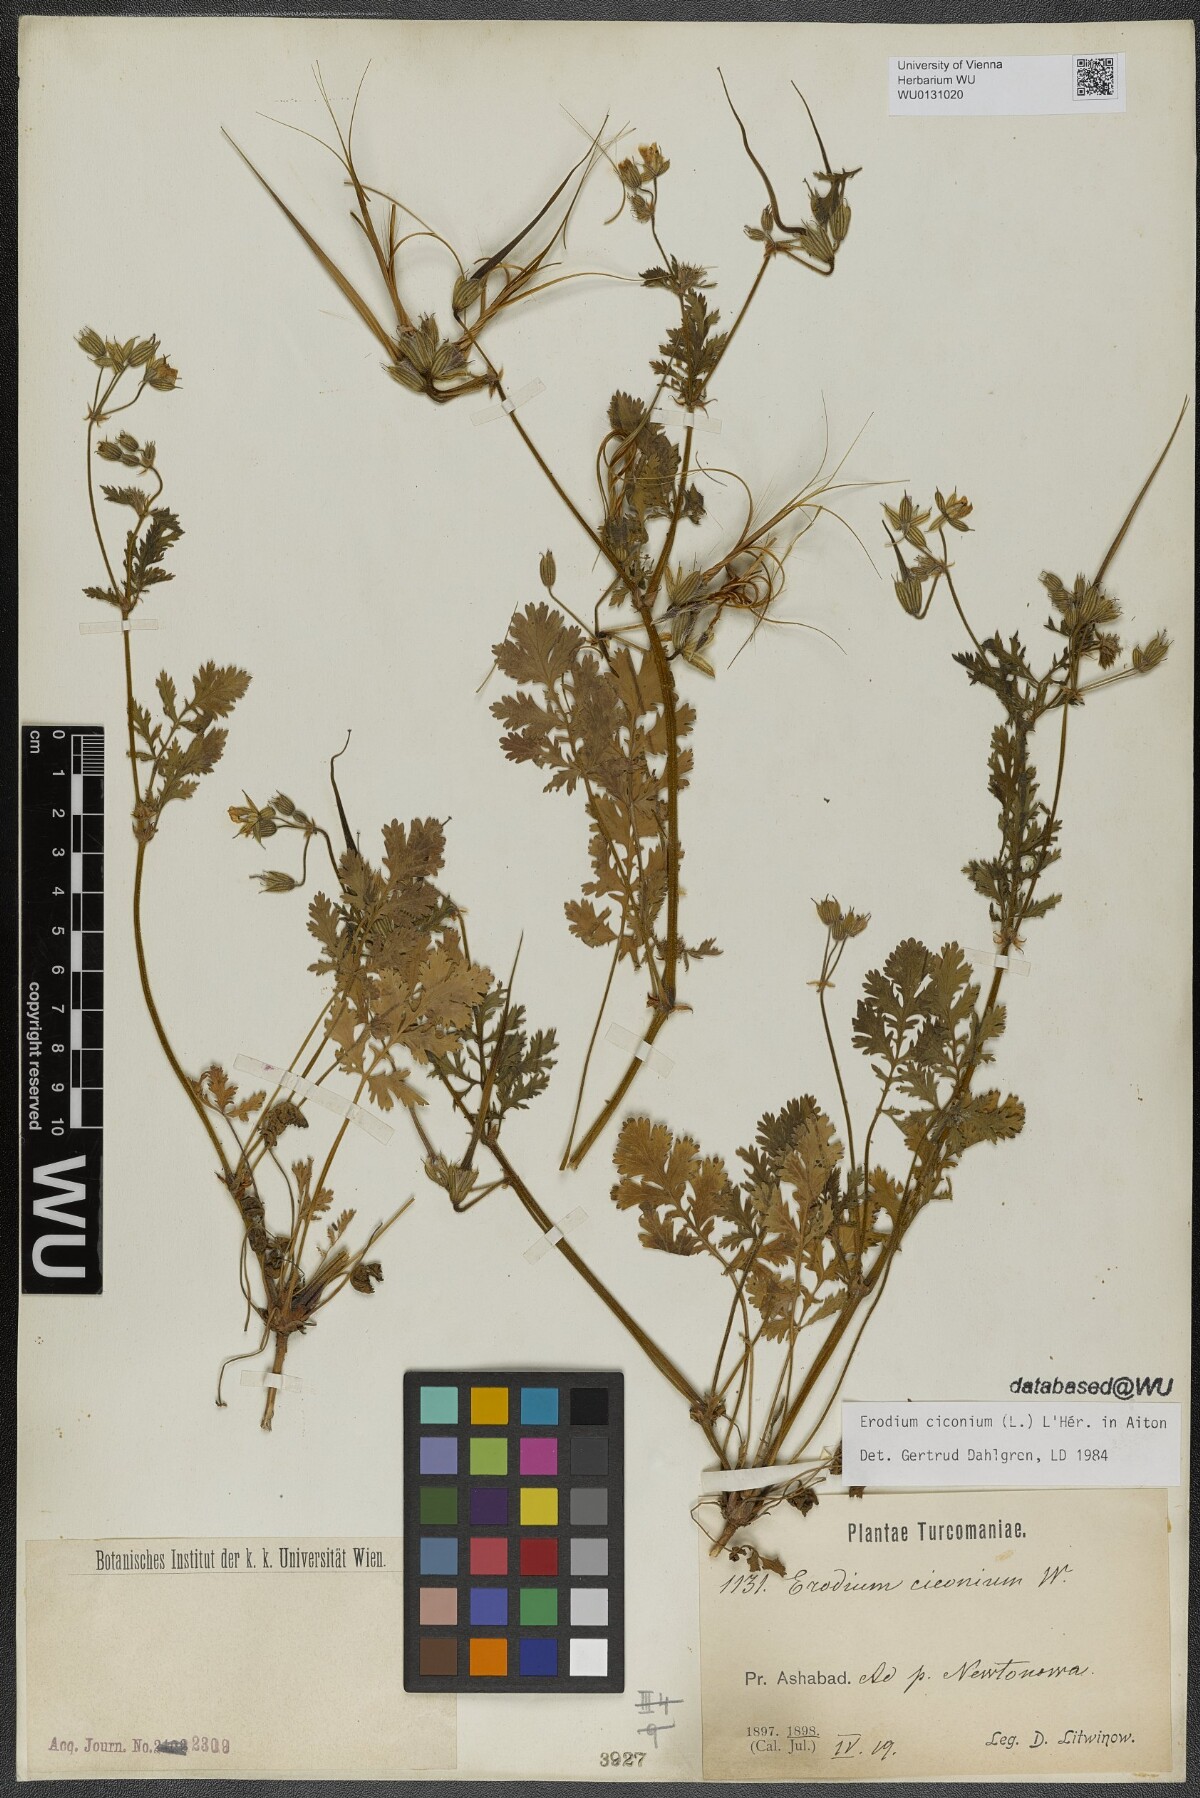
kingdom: Plantae
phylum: Tracheophyta
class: Magnoliopsida
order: Geraniales
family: Geraniaceae
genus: Erodium
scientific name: Erodium ciconium
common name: Common stork's bill
